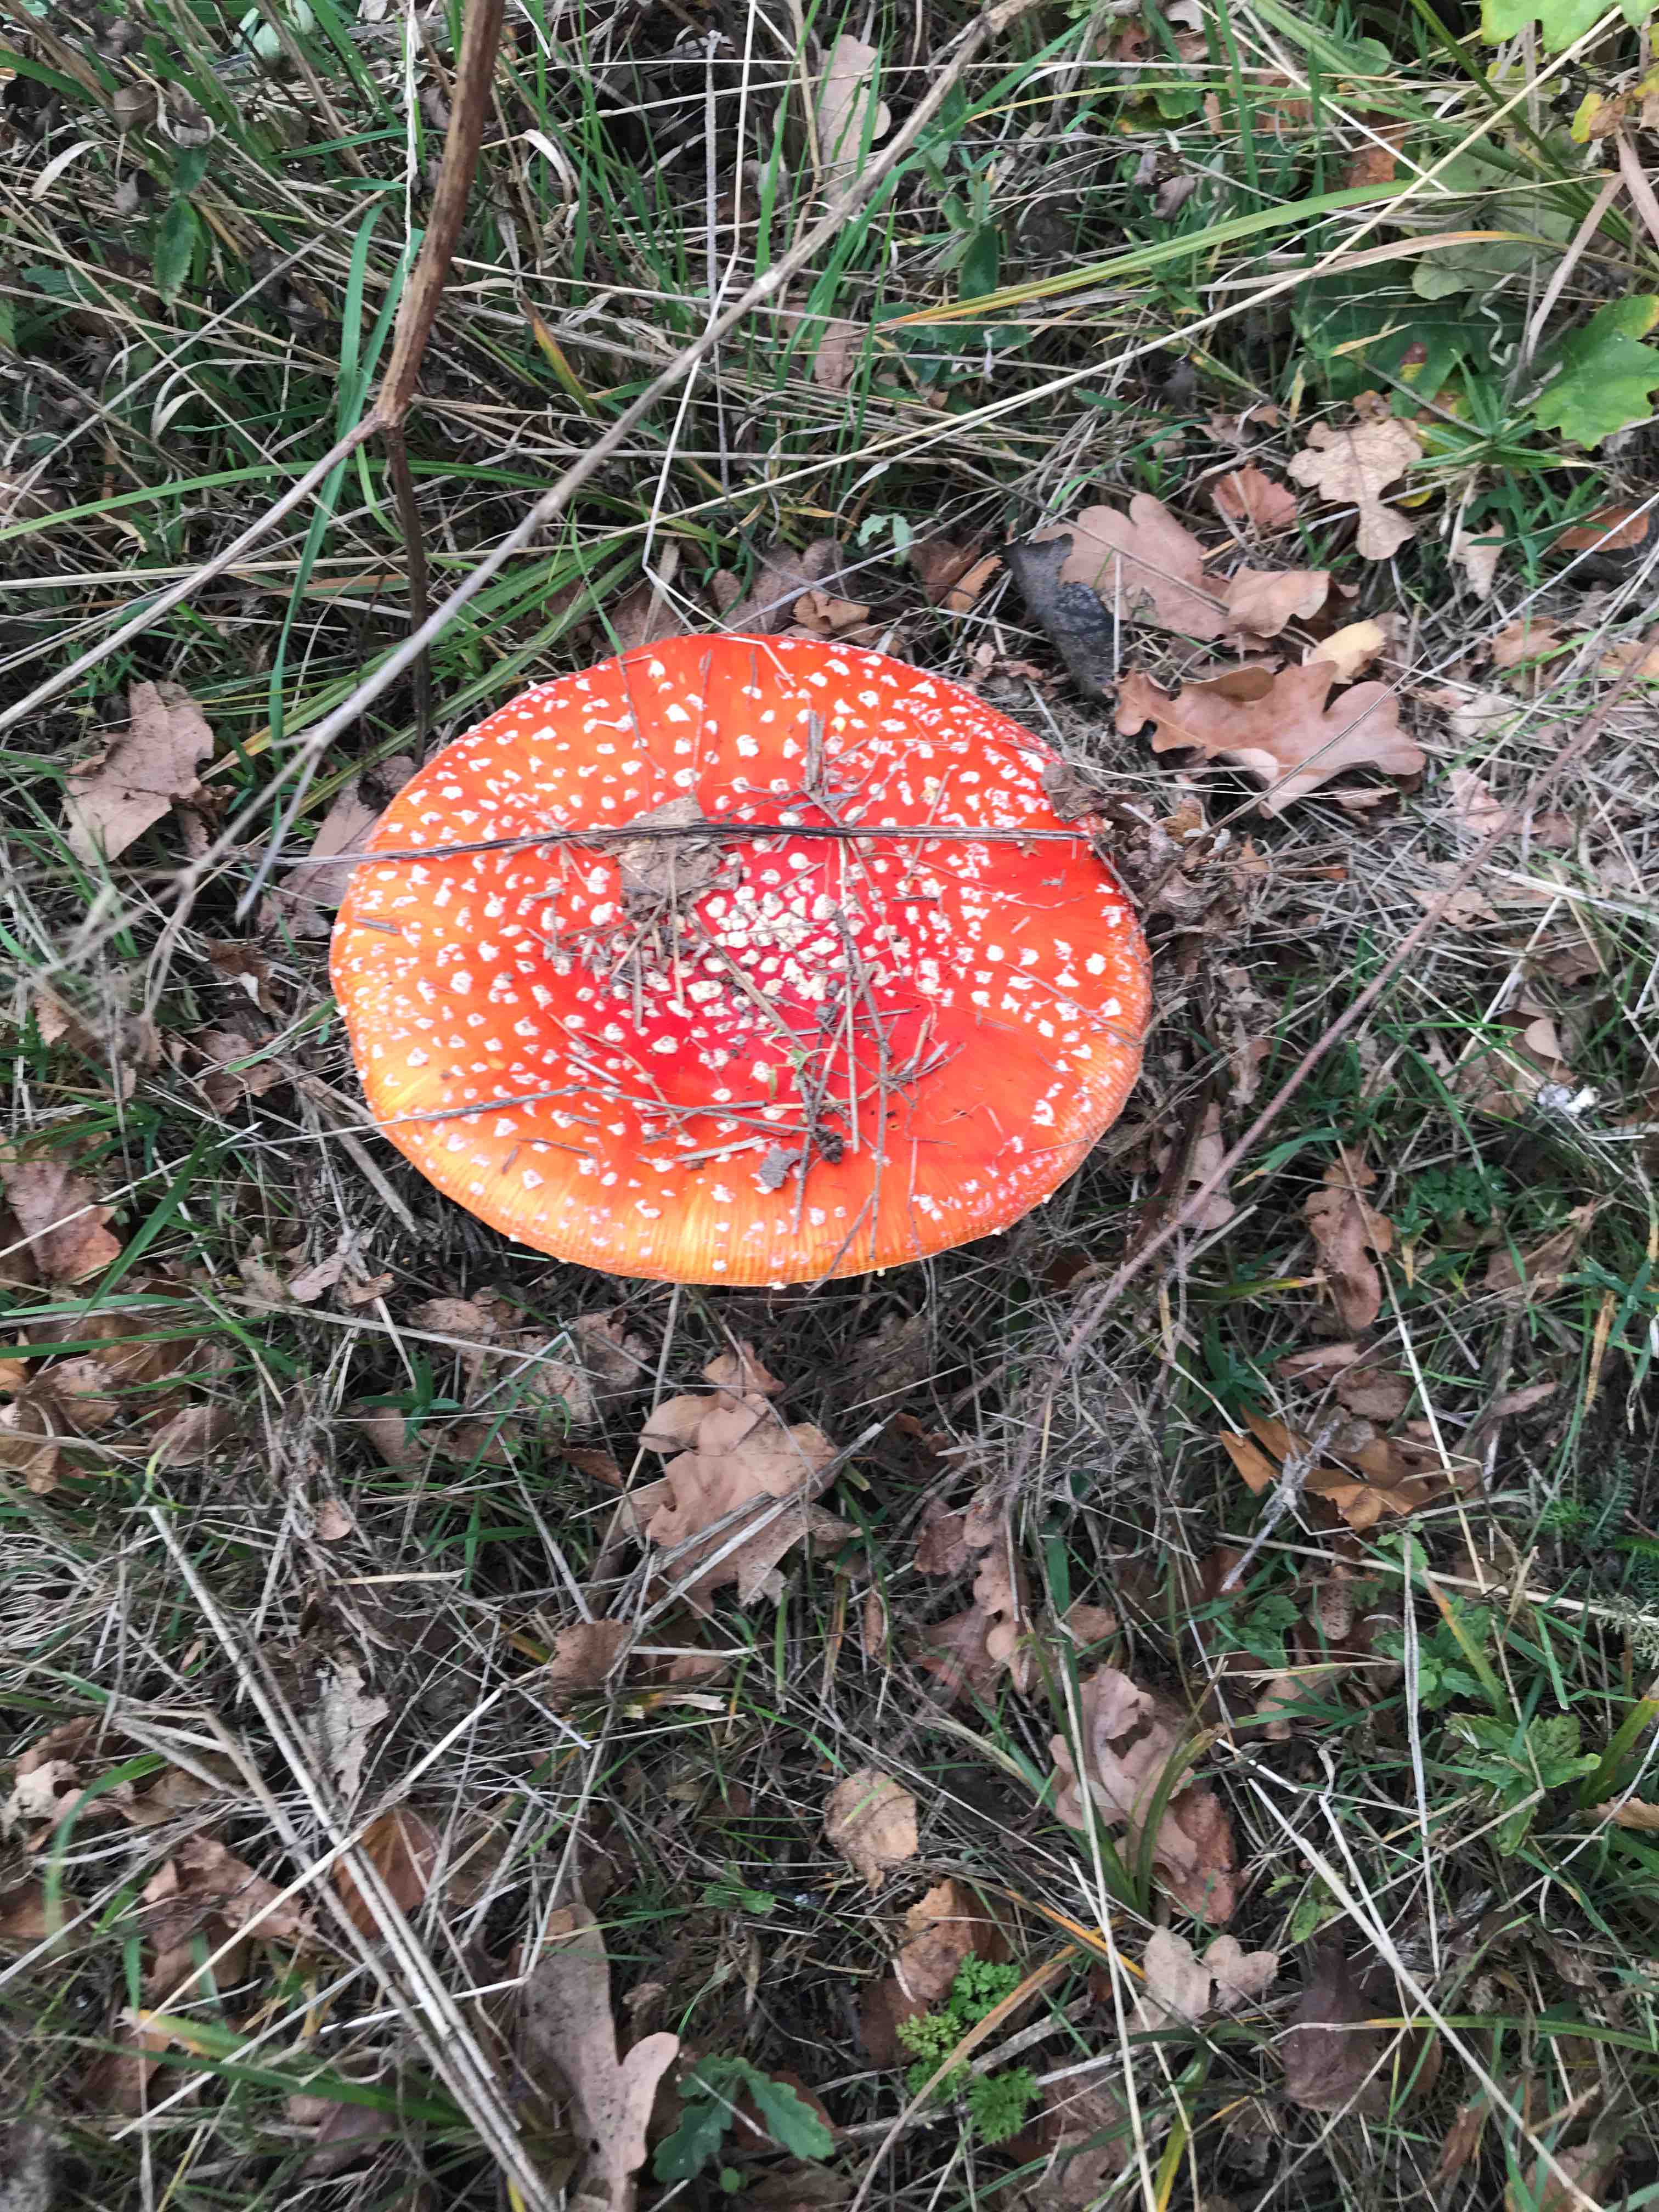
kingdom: Fungi
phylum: Basidiomycota
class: Agaricomycetes
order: Agaricales
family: Amanitaceae
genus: Amanita
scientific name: Amanita muscaria
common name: rød fluesvamp
